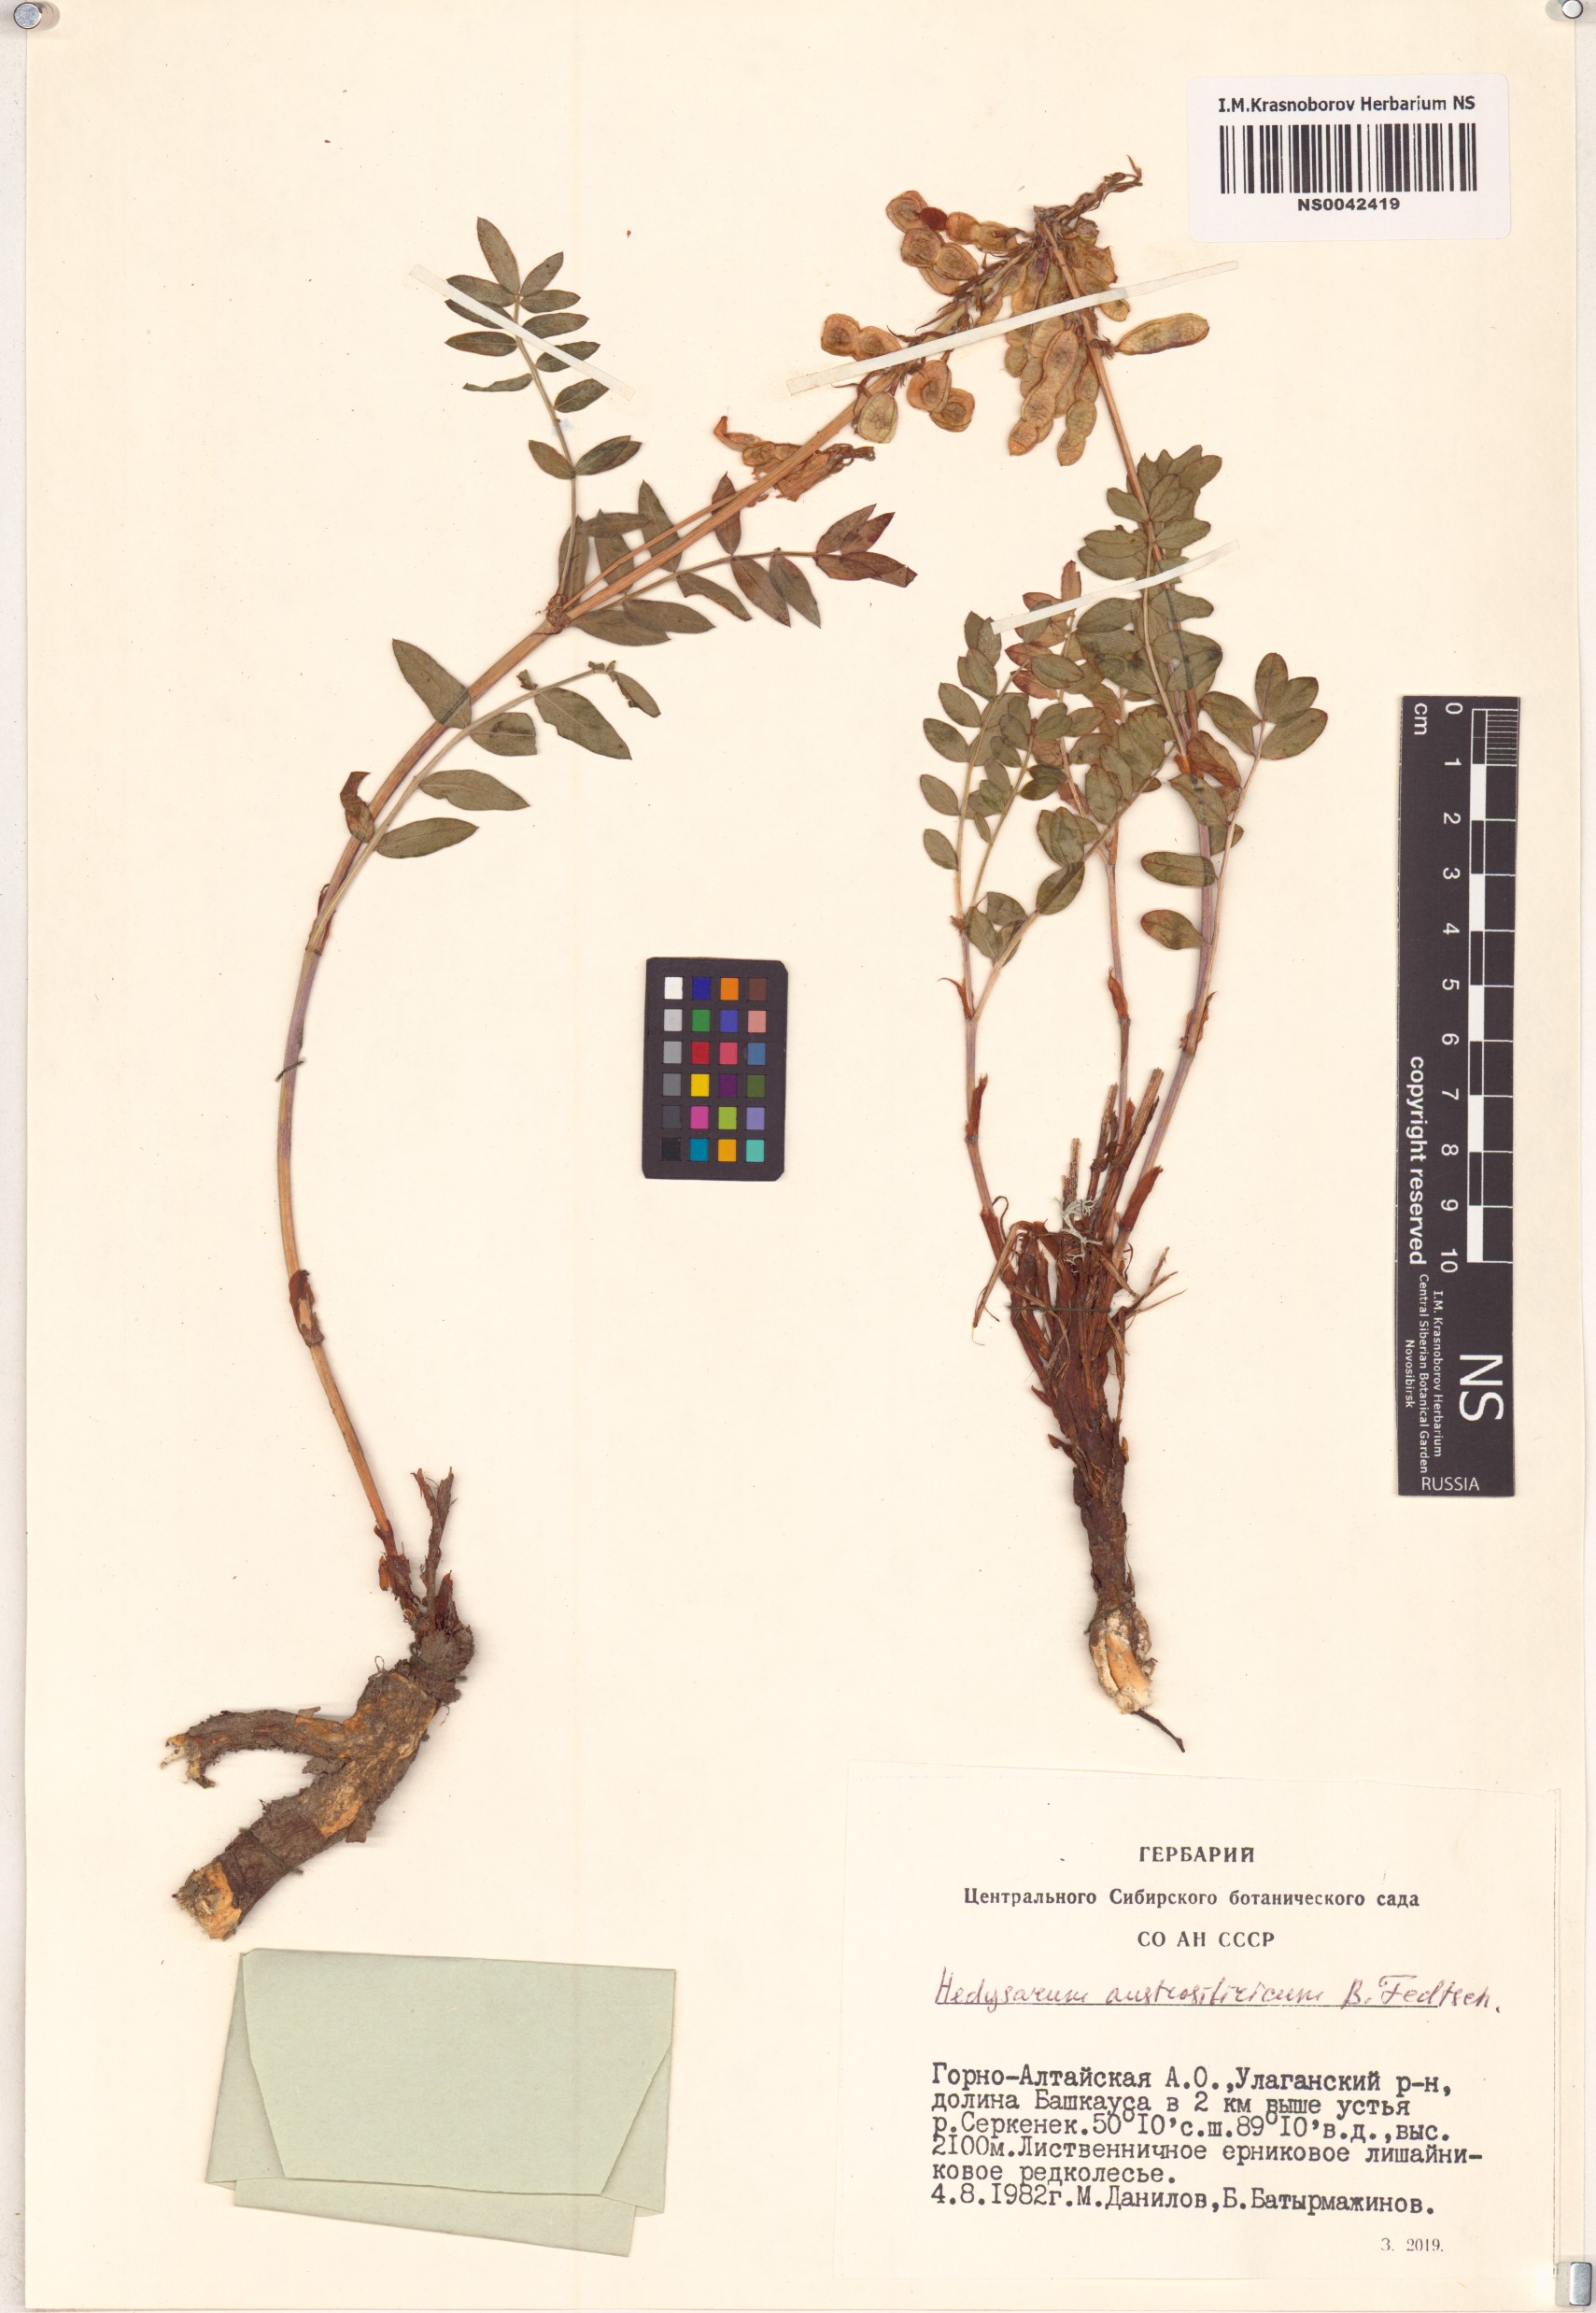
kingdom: Plantae
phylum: Tracheophyta
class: Magnoliopsida
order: Fabales
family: Fabaceae
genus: Hedysarum
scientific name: Hedysarum neglectum
